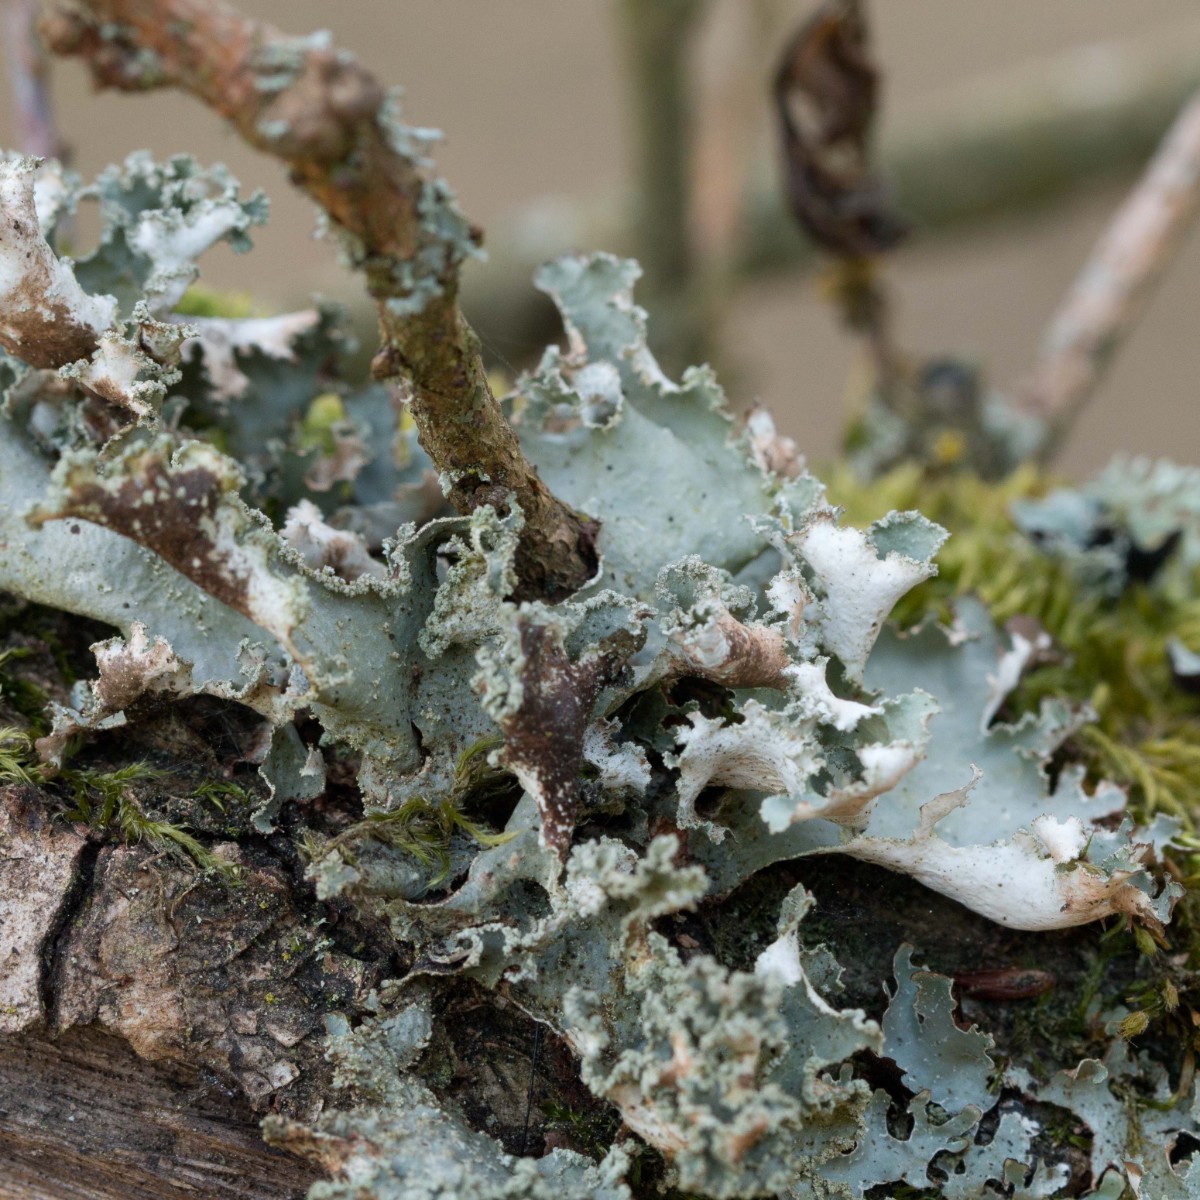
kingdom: Fungi
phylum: Ascomycota
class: Lecanoromycetes
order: Lecanorales
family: Parmeliaceae
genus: Platismatia
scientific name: Platismatia glauca
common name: blågrå papirlav
